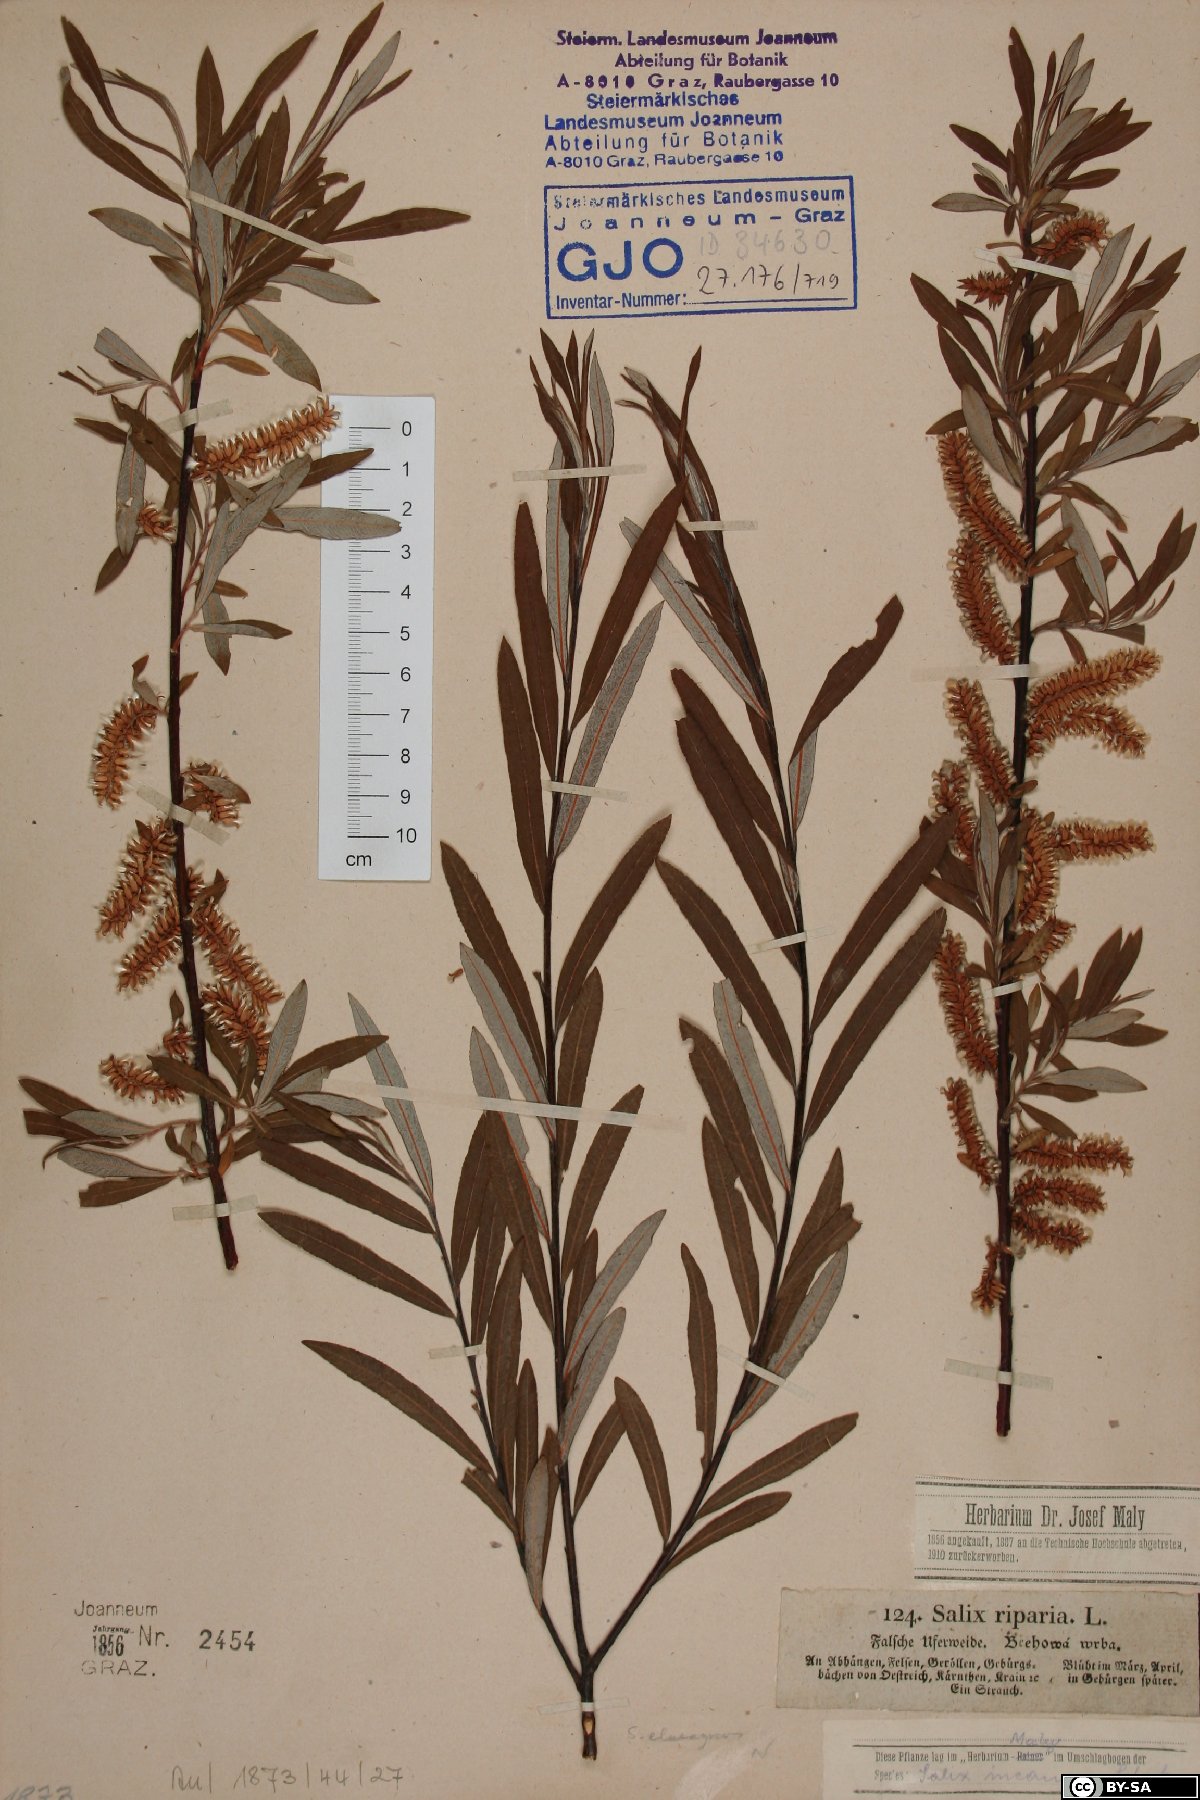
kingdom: Plantae
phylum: Tracheophyta
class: Magnoliopsida
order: Malpighiales
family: Salicaceae
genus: Salix
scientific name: Salix eleagnos
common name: Elaeagnus willow
